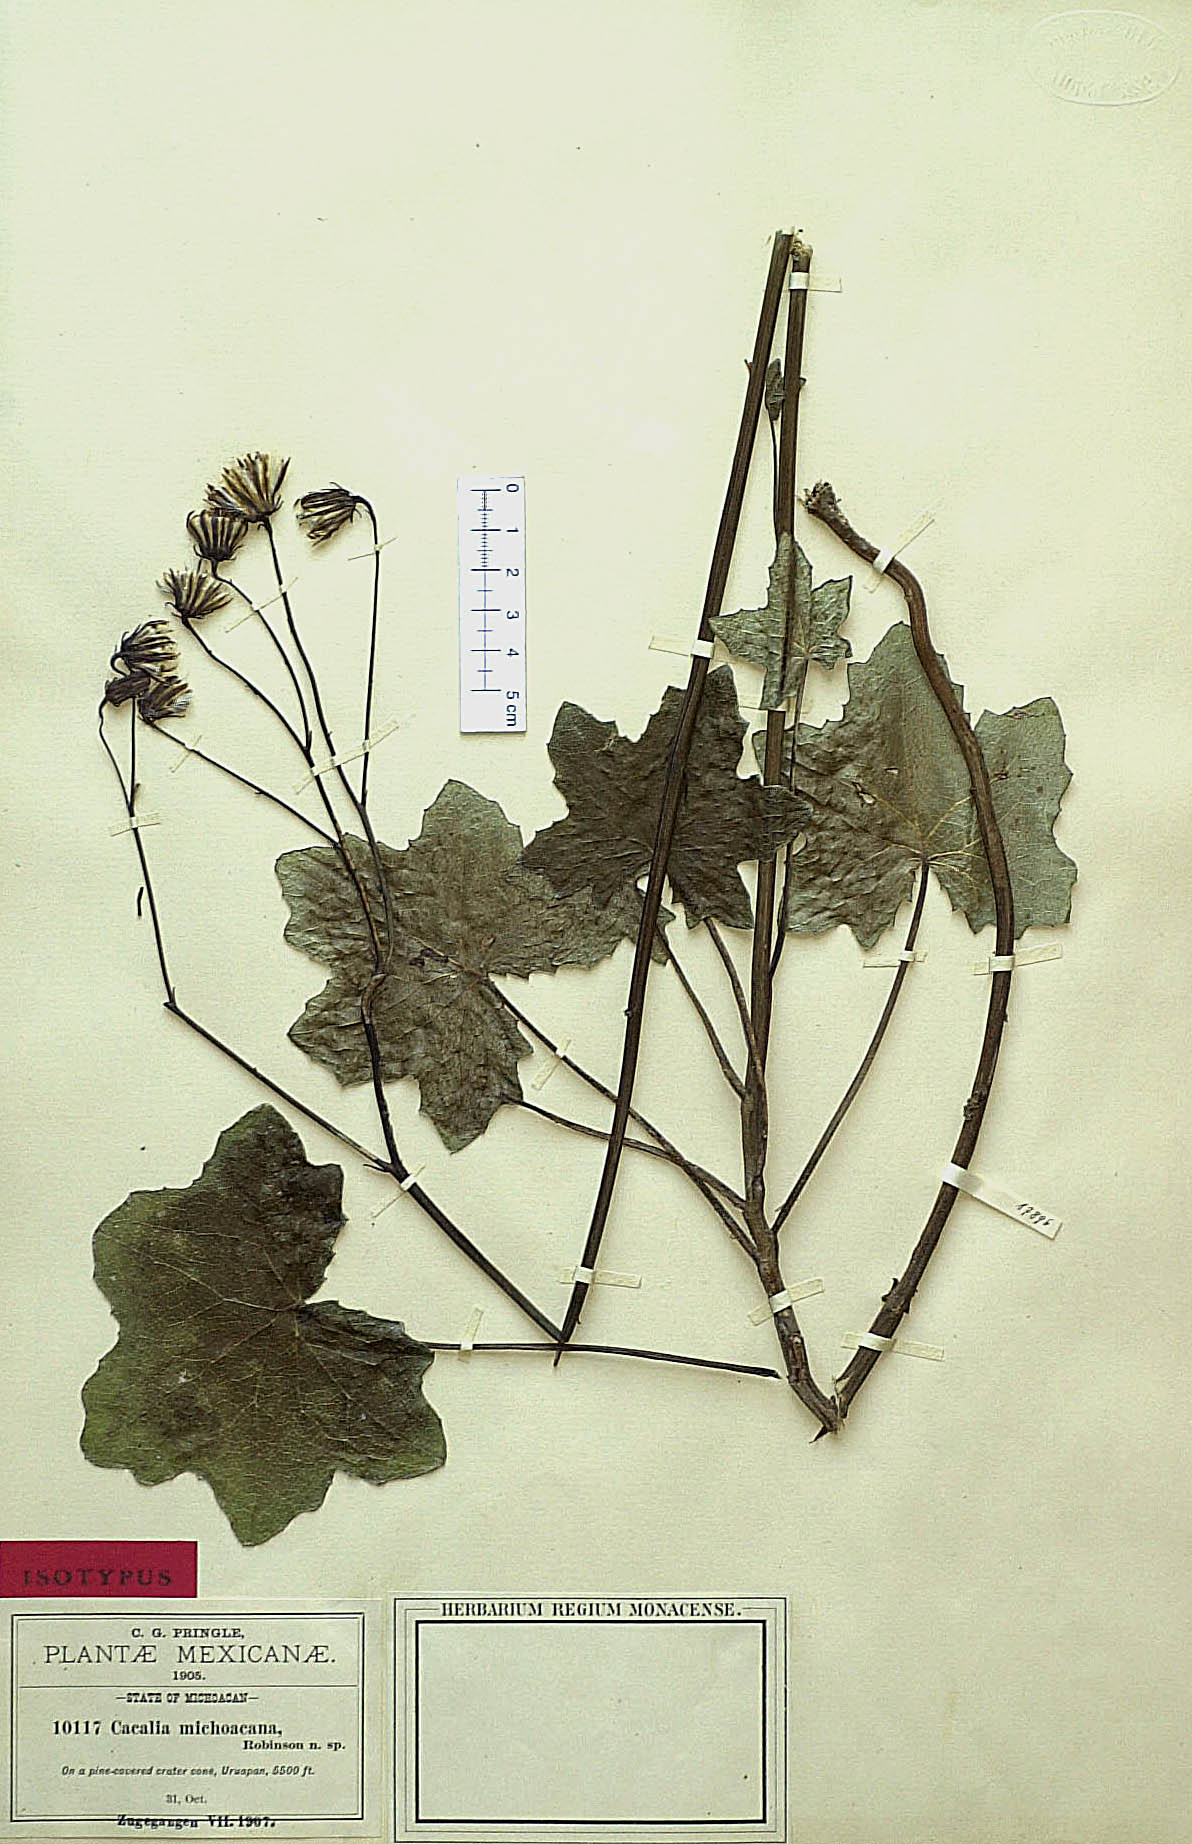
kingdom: Plantae
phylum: Tracheophyta
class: Magnoliopsida
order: Asterales
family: Asteraceae
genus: Roldana
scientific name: Roldana michoacana
